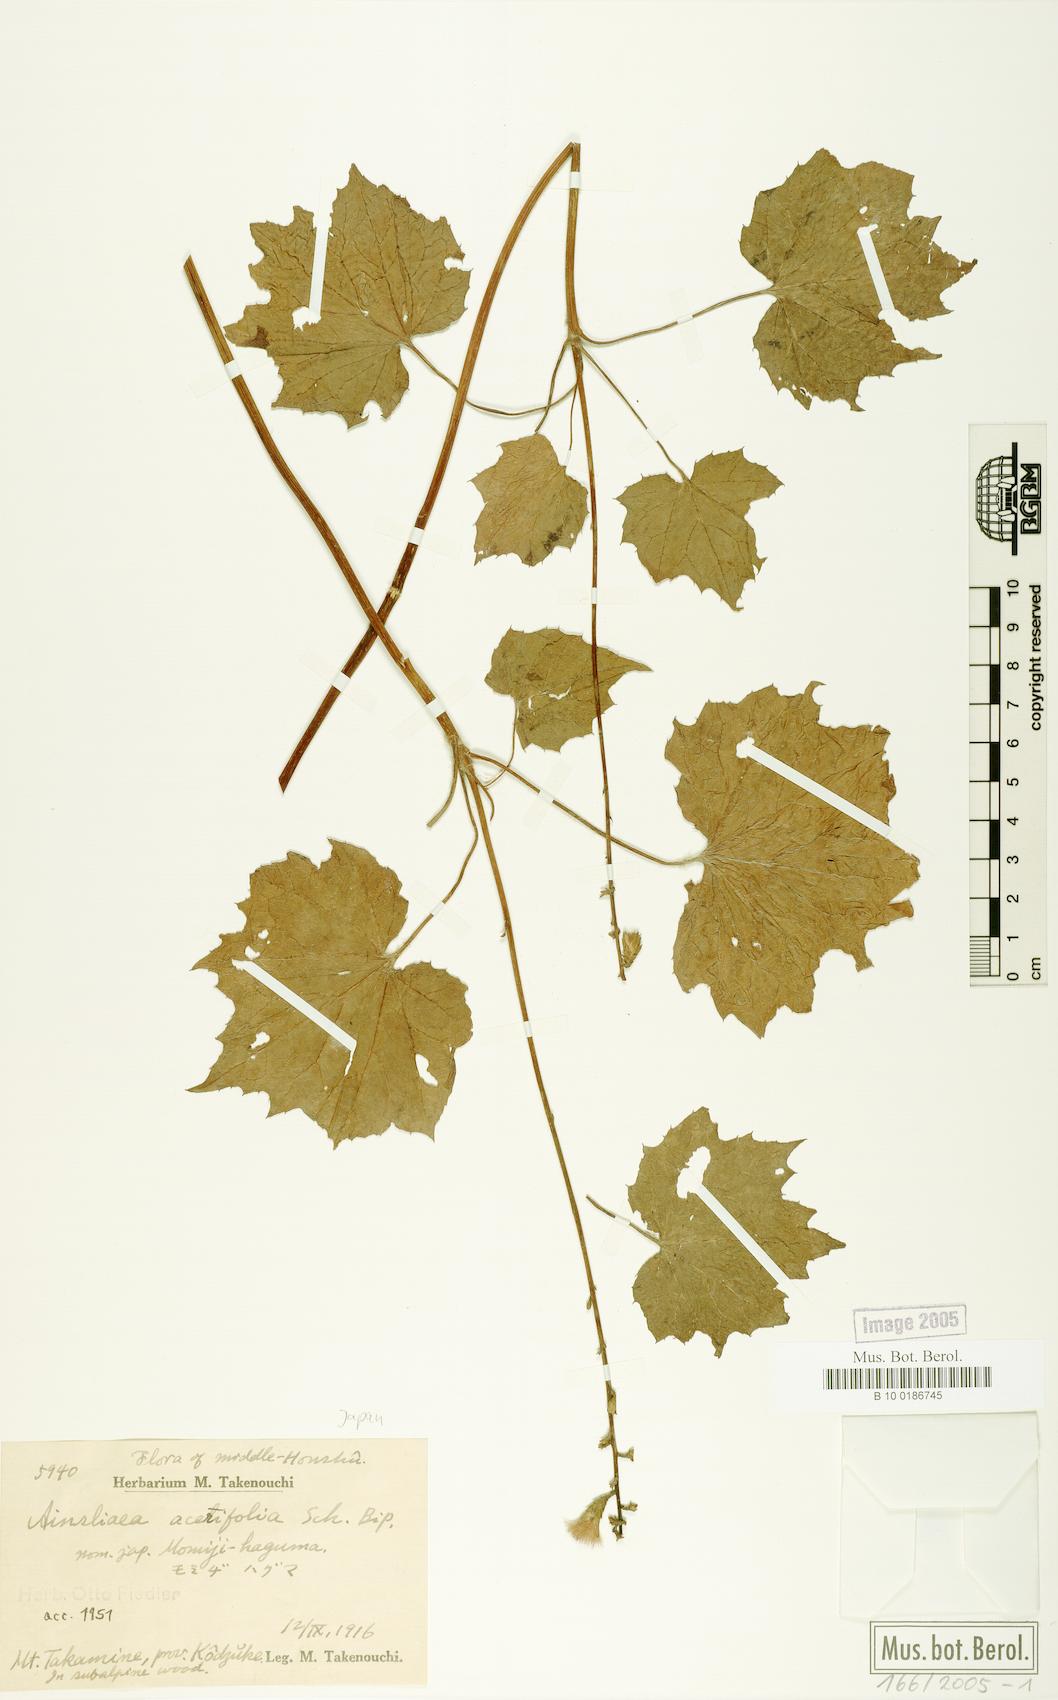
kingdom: Plantae
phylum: Tracheophyta
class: Magnoliopsida
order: Asterales
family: Asteraceae
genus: Ainsliaea
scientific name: Ainsliaea acerifolia
